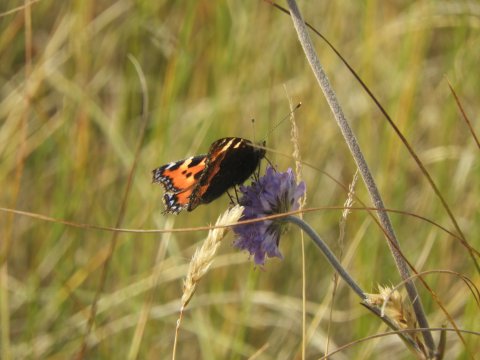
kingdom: Animalia
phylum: Arthropoda
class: Insecta
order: Lepidoptera
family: Nymphalidae
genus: Aglais
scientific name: Aglais urticae
